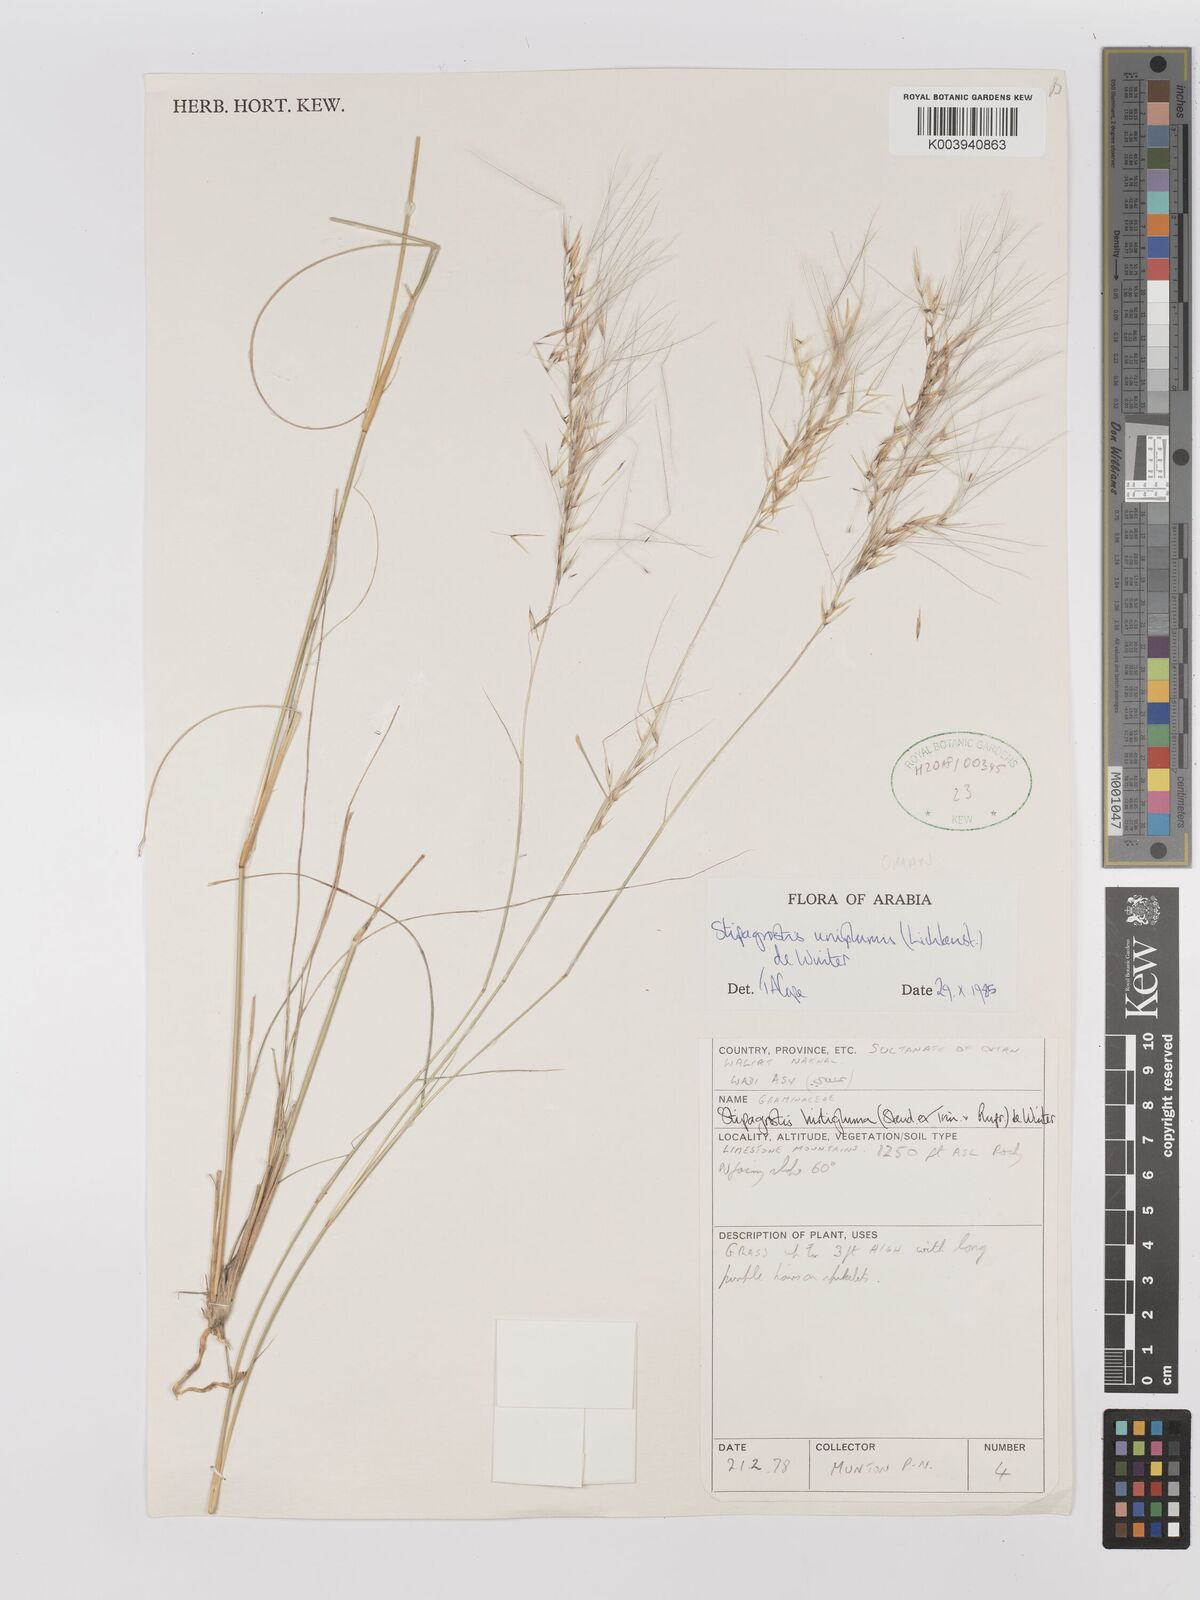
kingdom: Plantae
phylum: Tracheophyta
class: Liliopsida
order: Poales
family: Poaceae
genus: Stipagrostis
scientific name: Stipagrostis uniplumis
